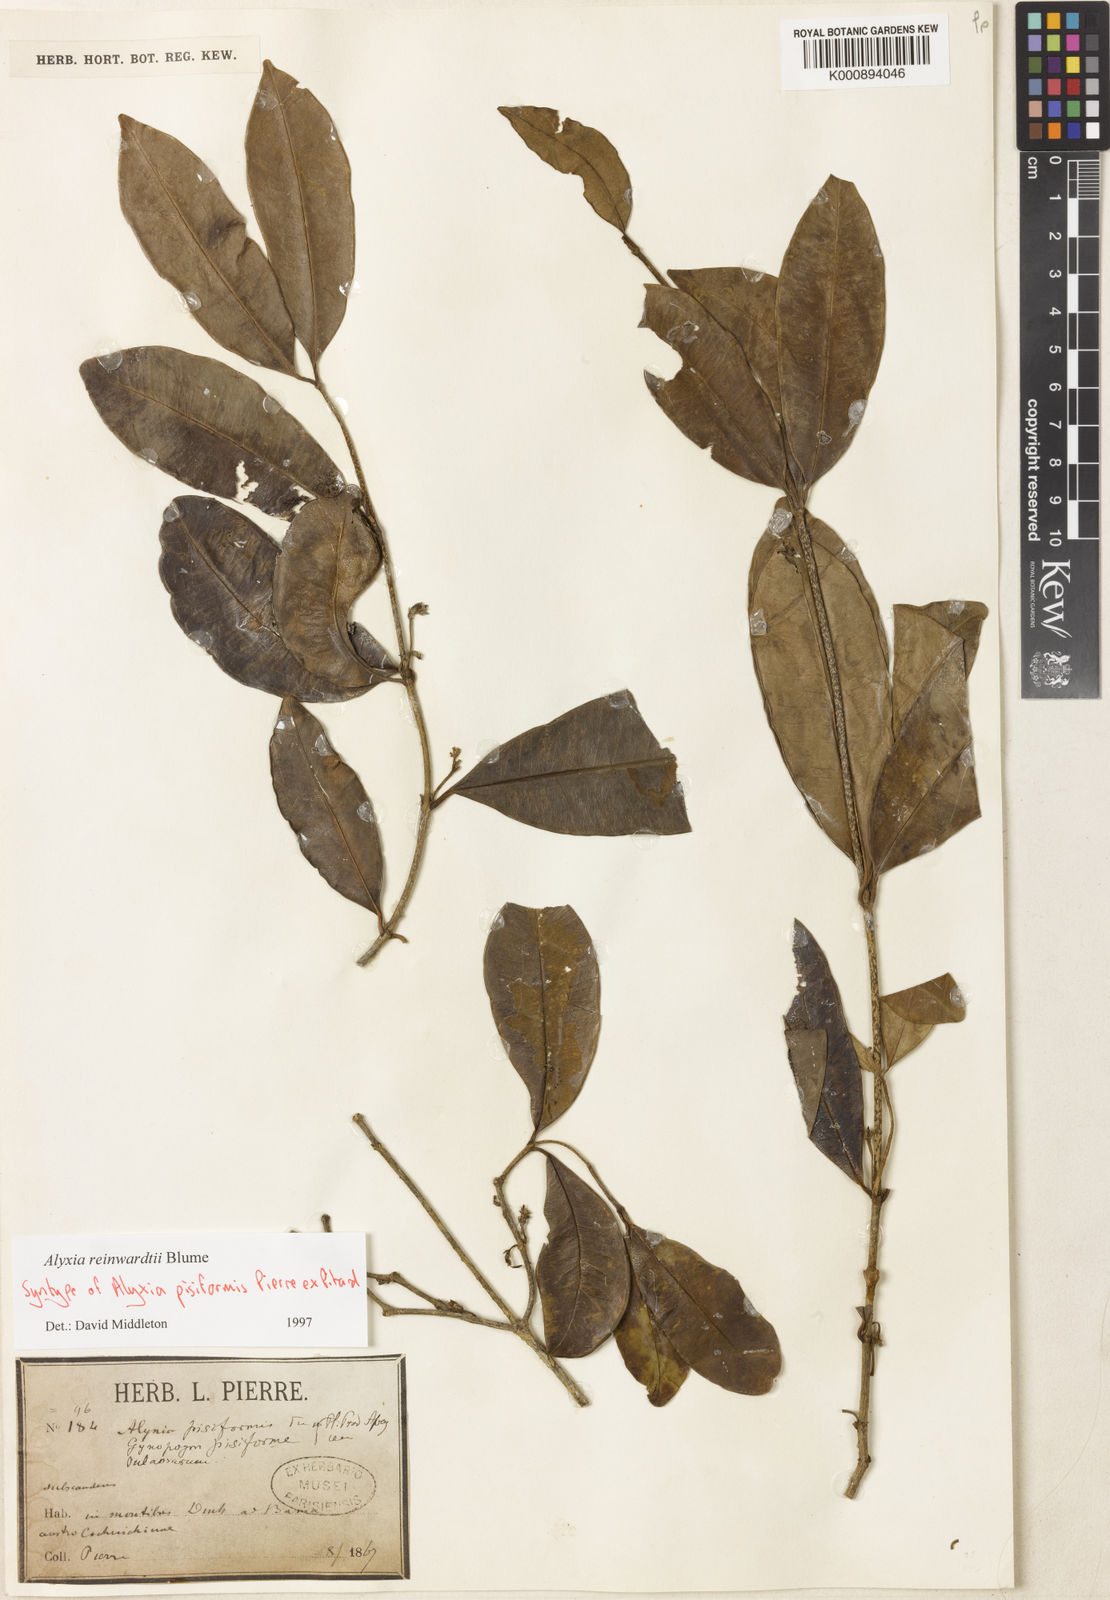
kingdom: Plantae
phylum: Tracheophyta
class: Magnoliopsida
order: Gentianales
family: Apocynaceae
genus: Alyxia
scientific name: Alyxia reinwardtii
